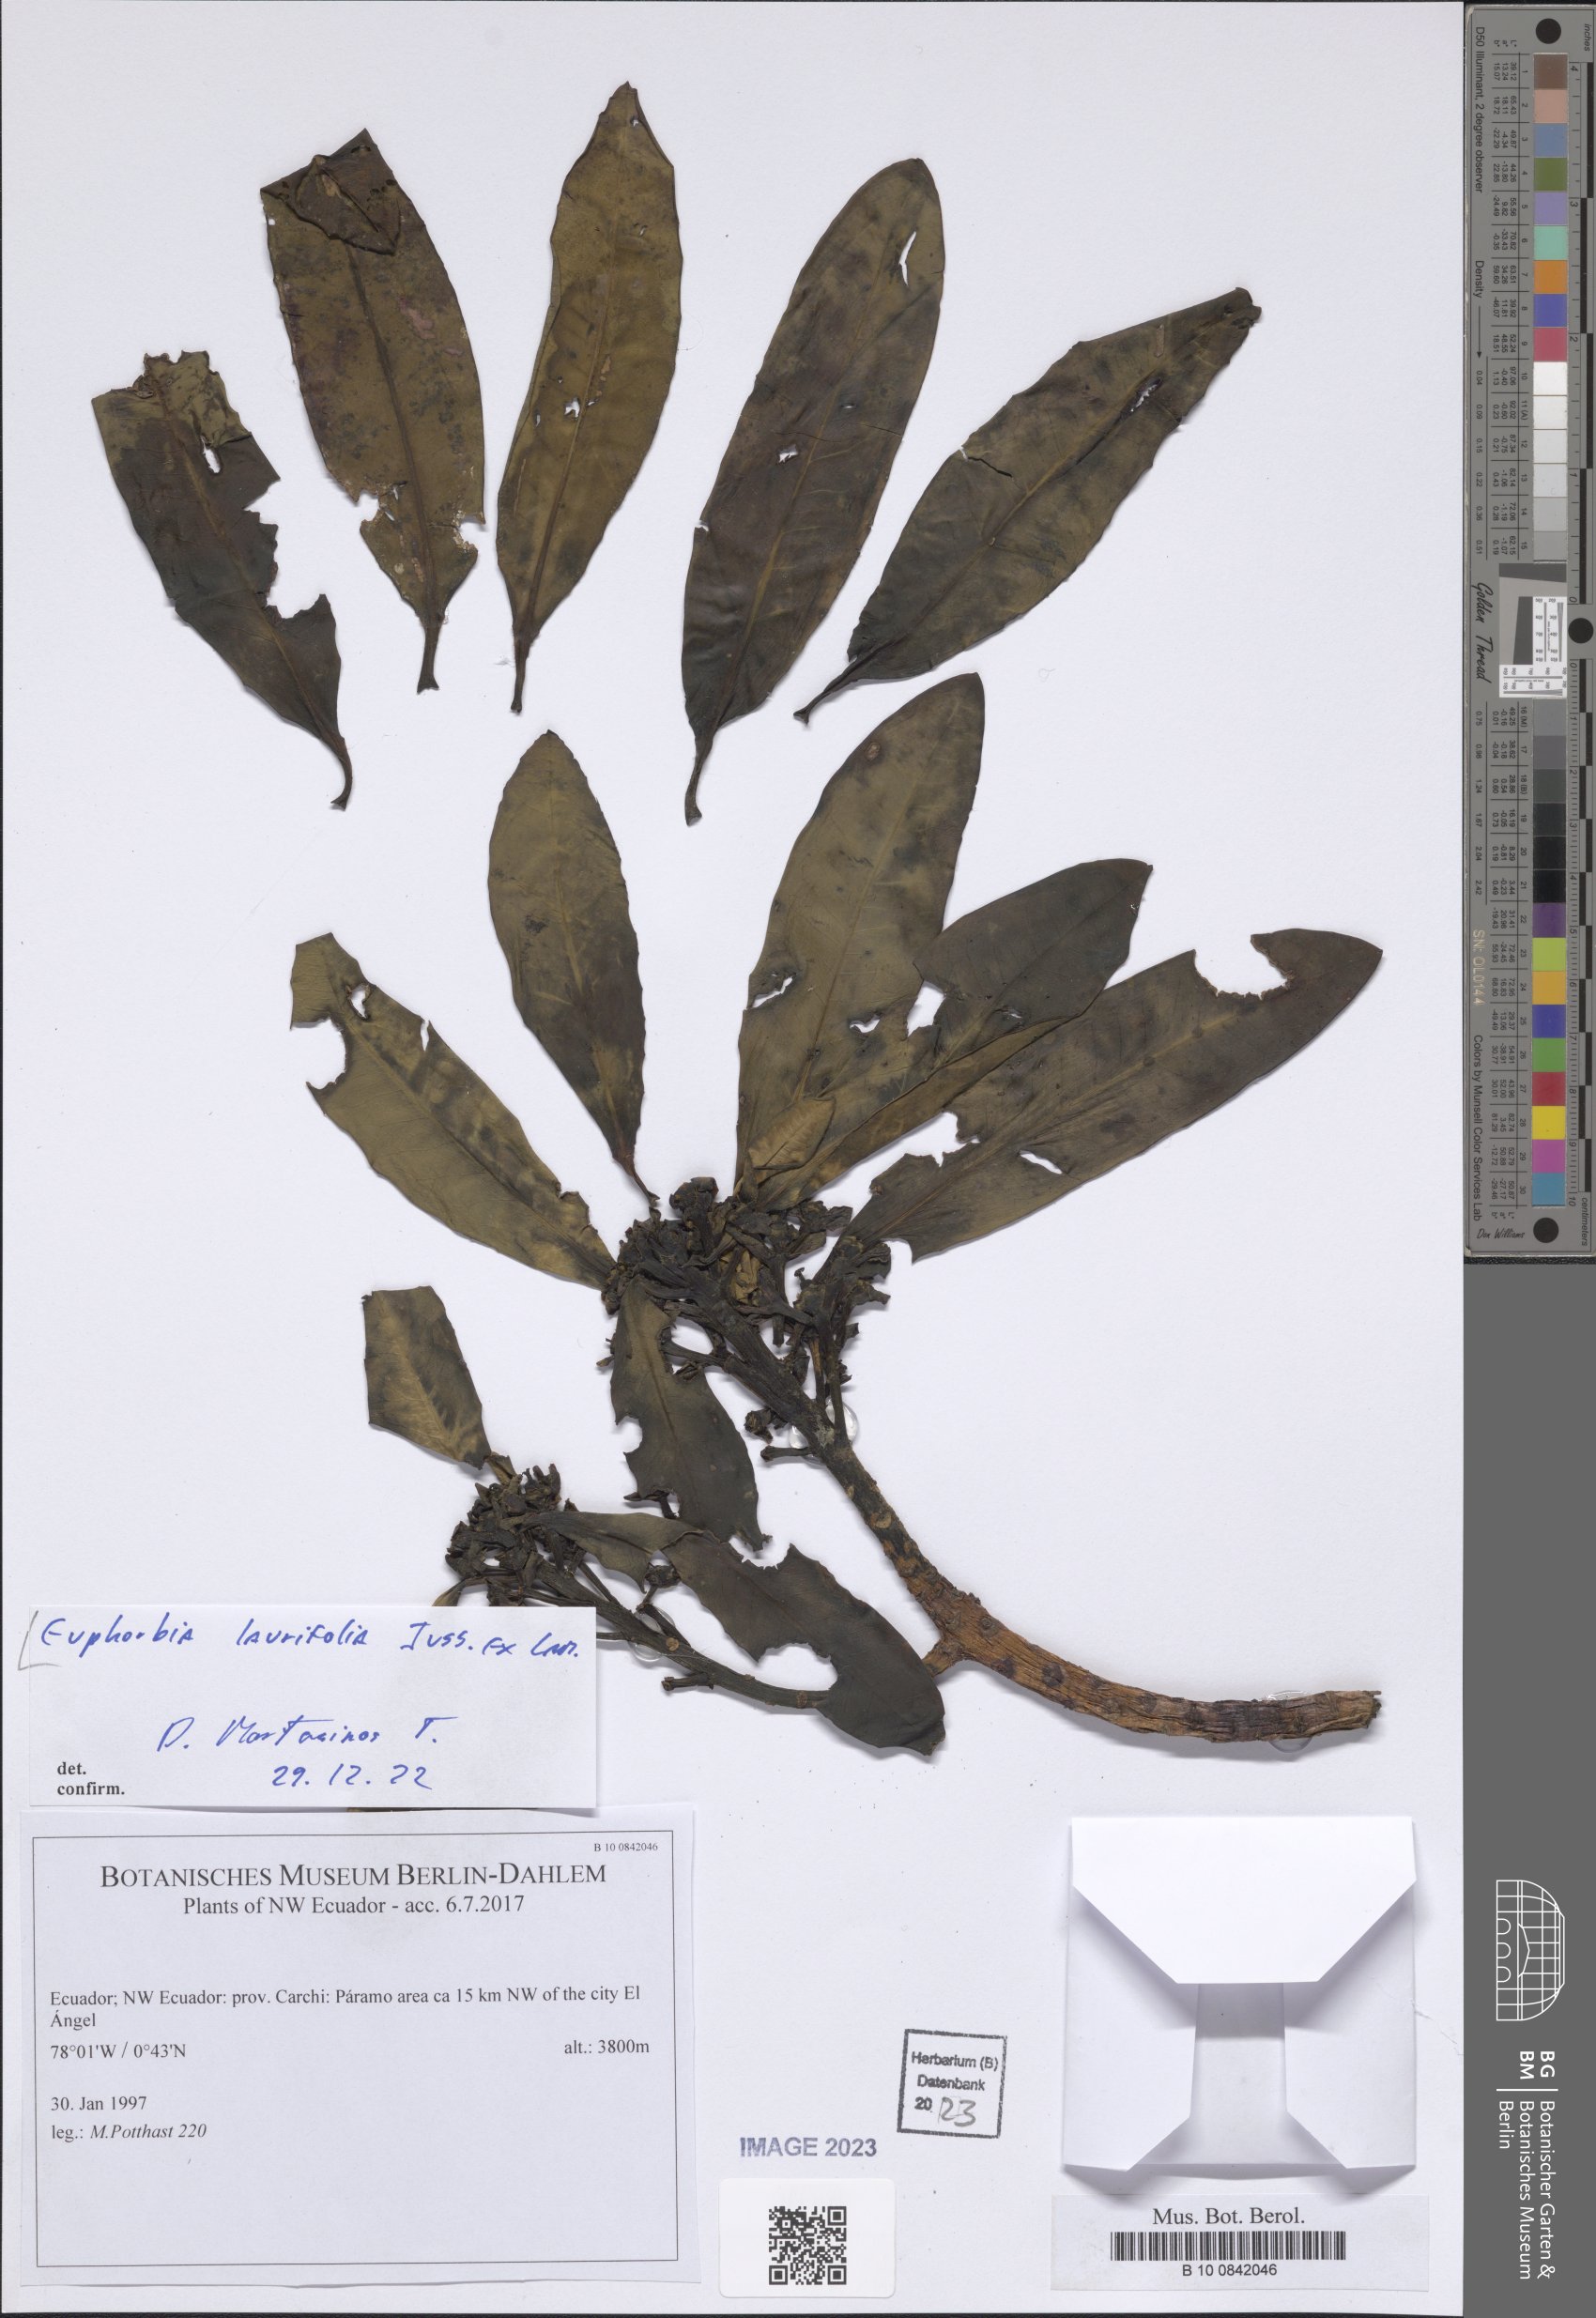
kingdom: Plantae
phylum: Tracheophyta
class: Magnoliopsida
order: Malpighiales
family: Euphorbiaceae
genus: Euphorbia
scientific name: Euphorbia laurifolia
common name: Lechero
